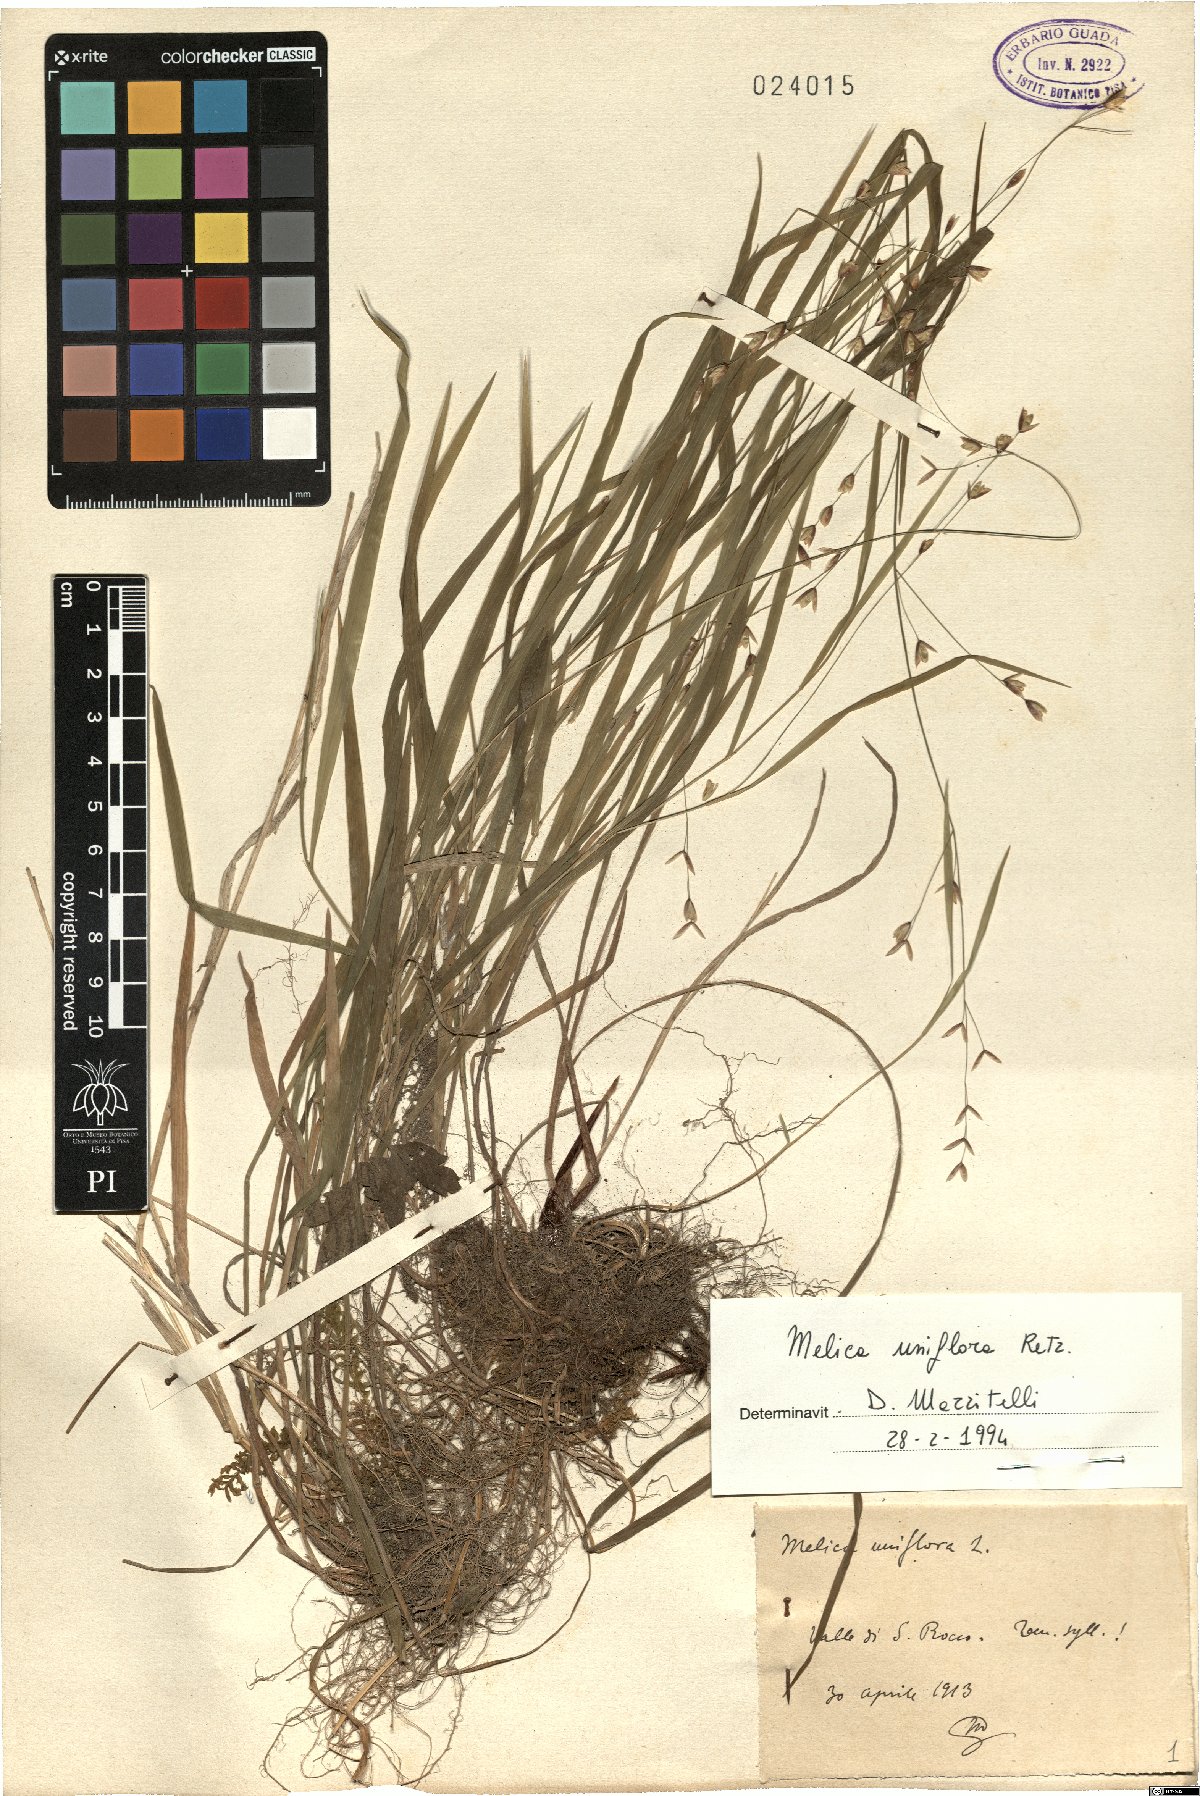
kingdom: Plantae
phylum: Tracheophyta
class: Liliopsida
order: Poales
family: Poaceae
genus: Melica
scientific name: Melica uniflora
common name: Wood melick
